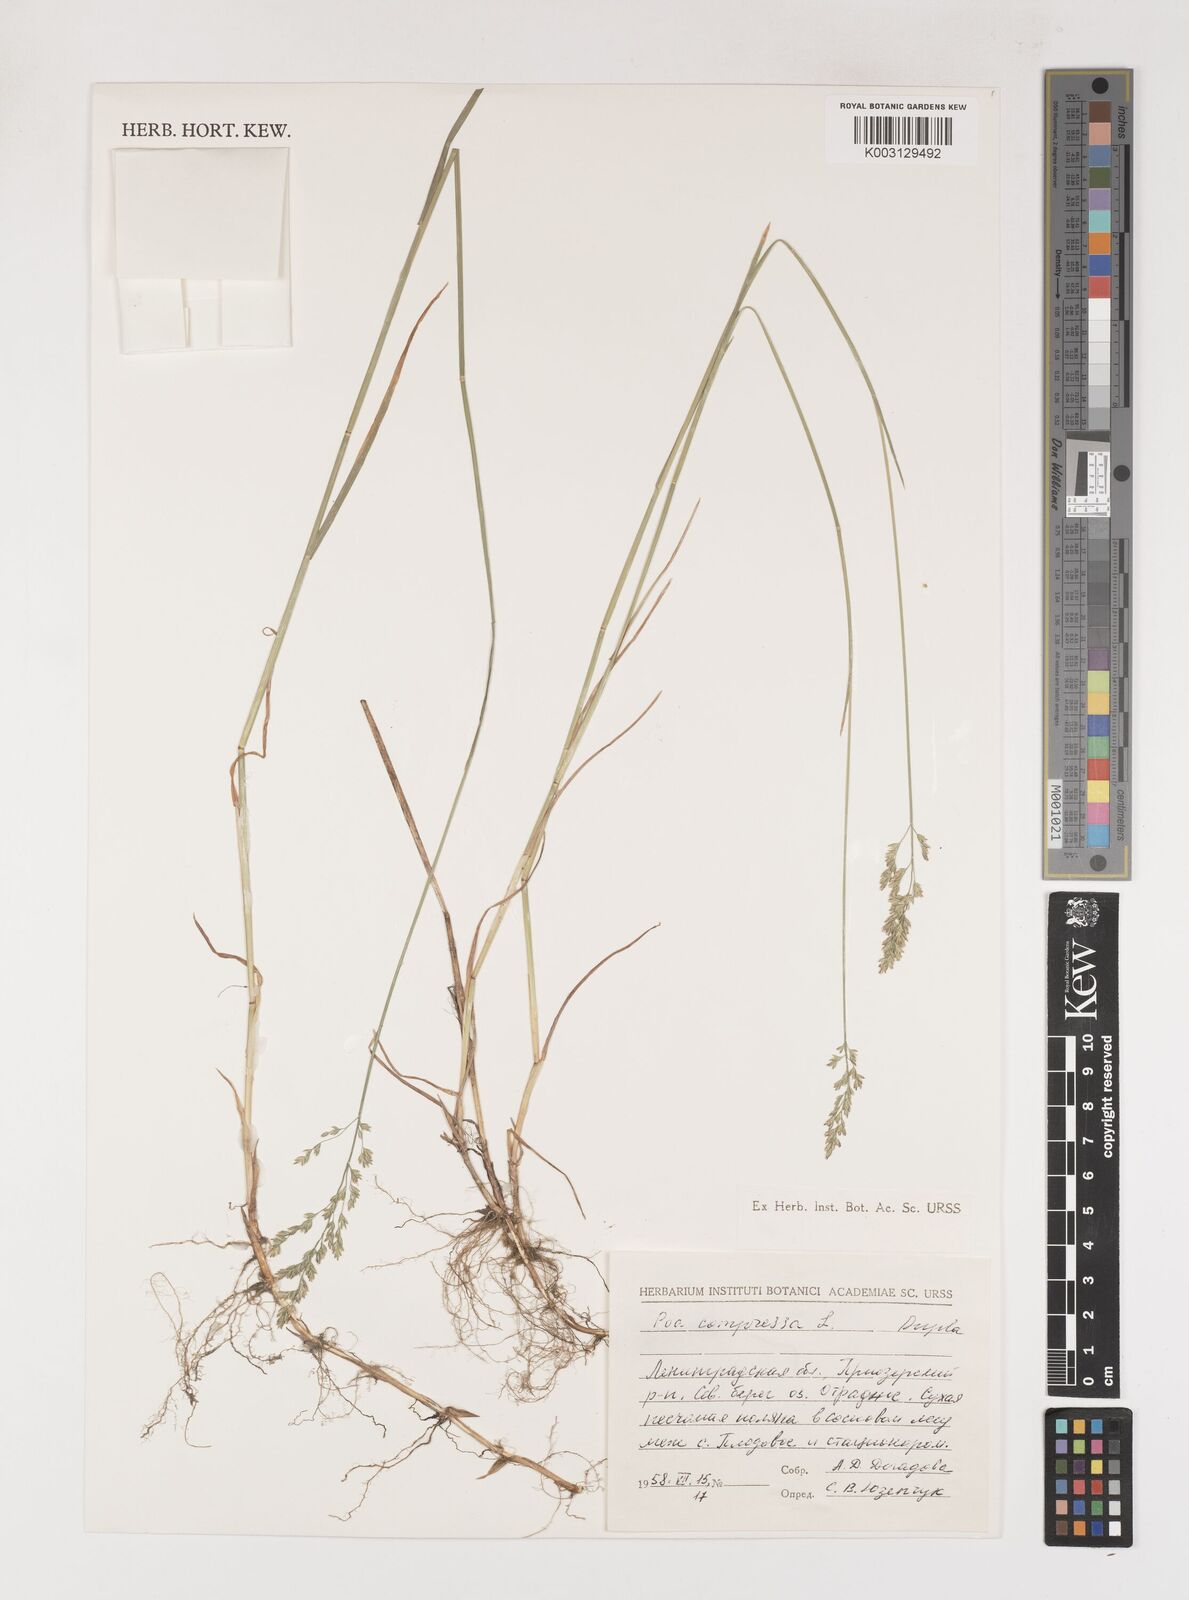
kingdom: Plantae
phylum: Tracheophyta
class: Liliopsida
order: Poales
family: Poaceae
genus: Poa
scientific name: Poa compressa
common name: Canada bluegrass
